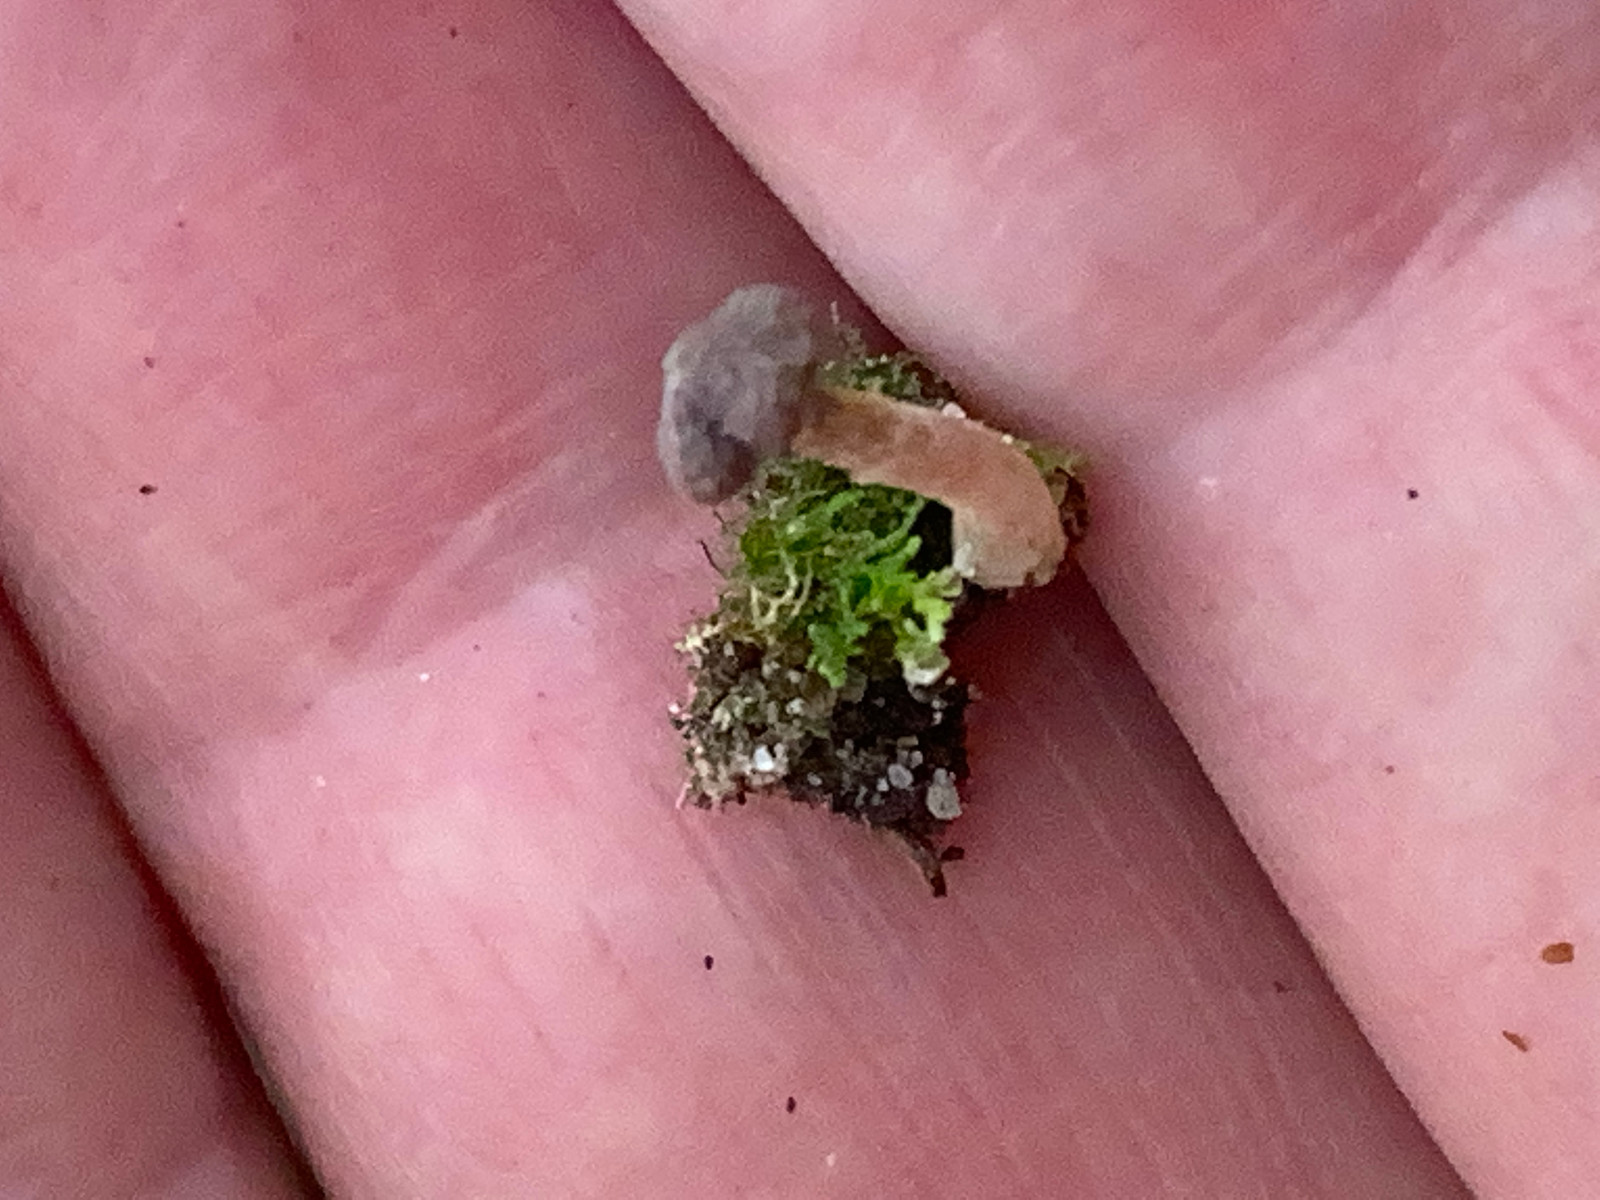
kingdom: Fungi
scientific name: Fungi
